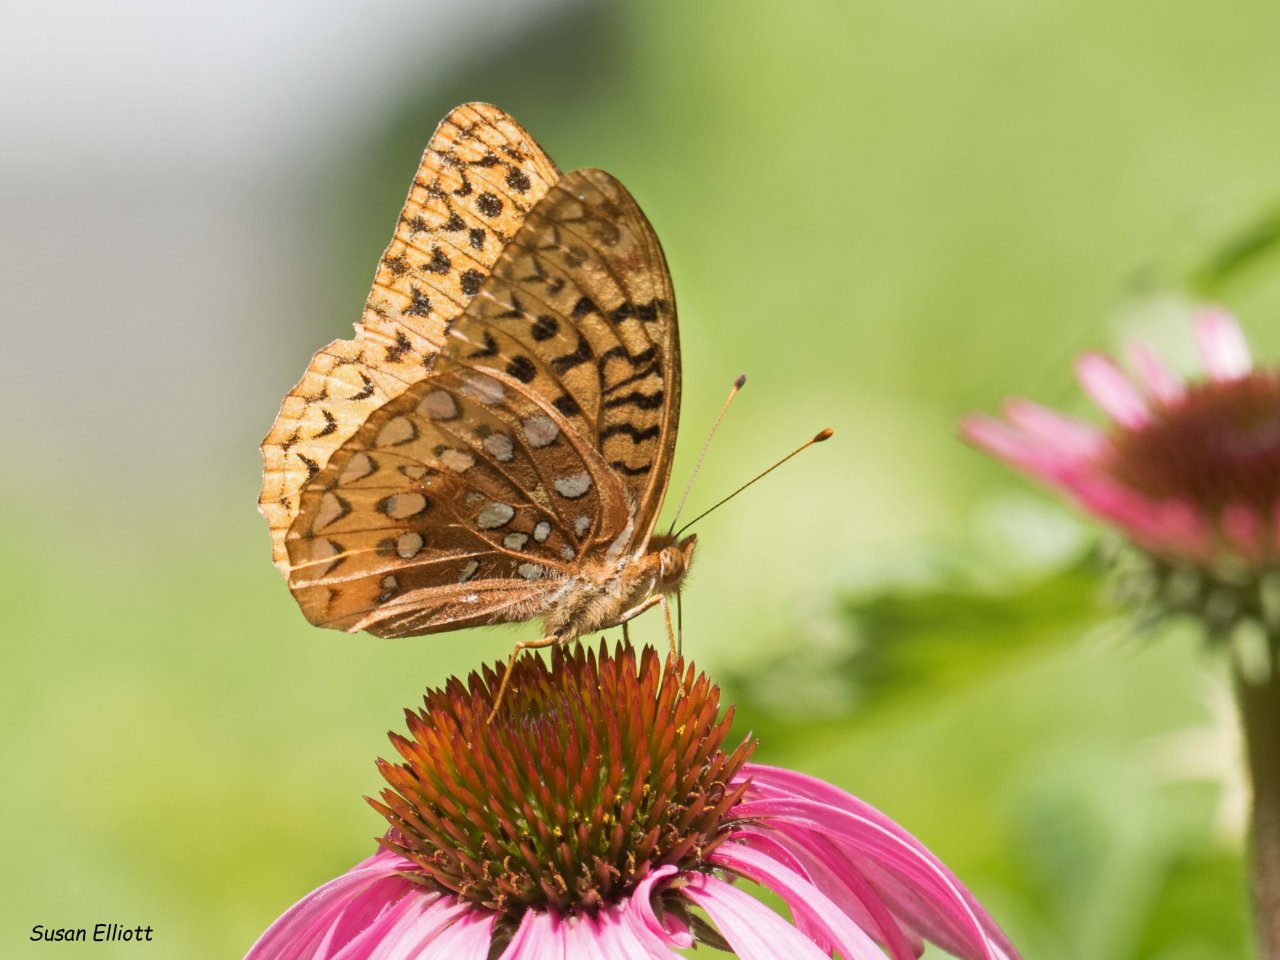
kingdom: Animalia
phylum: Arthropoda
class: Insecta
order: Lepidoptera
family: Nymphalidae
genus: Speyeria
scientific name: Speyeria cybele
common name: Great Spangled Fritillary
